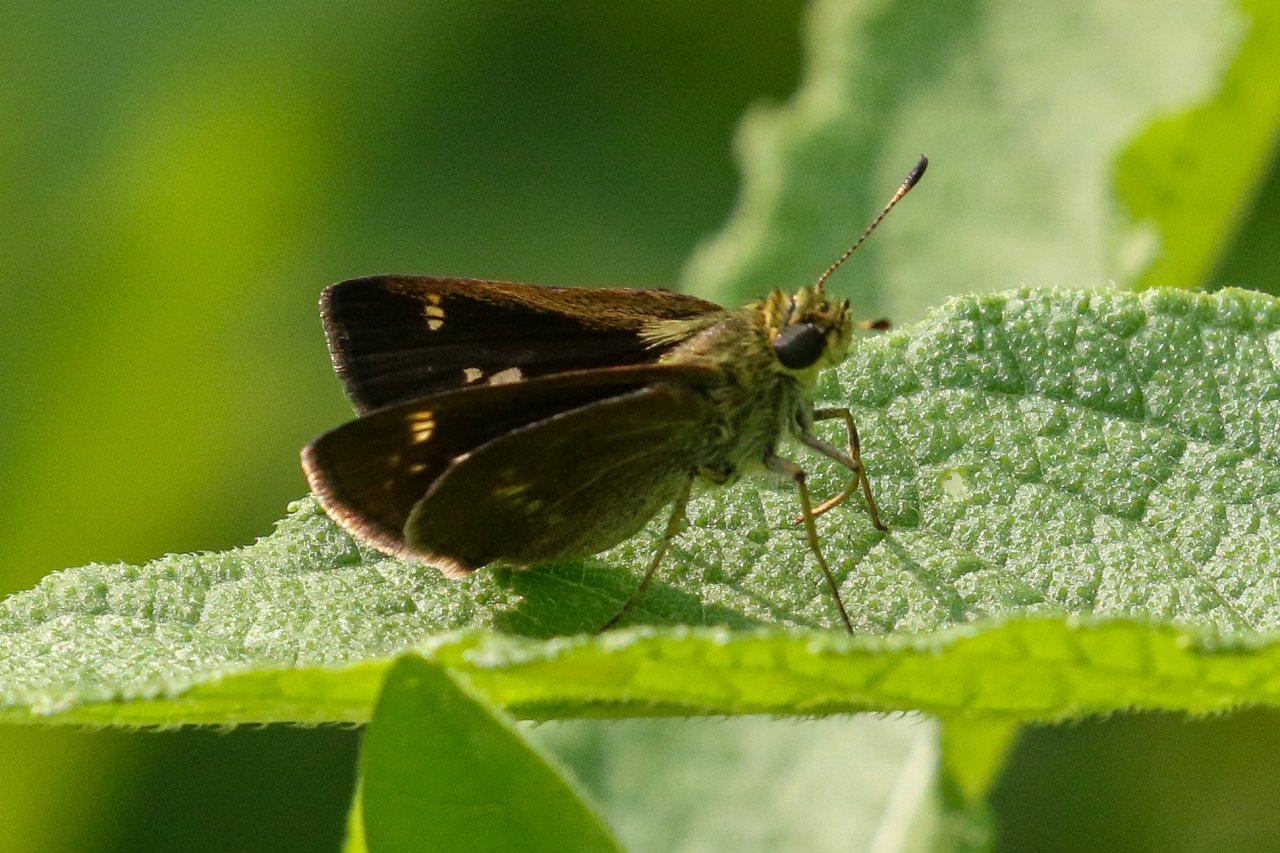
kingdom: Animalia
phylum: Arthropoda
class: Insecta
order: Lepidoptera
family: Hesperiidae
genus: Vernia
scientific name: Vernia verna
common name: Little Glassywing
